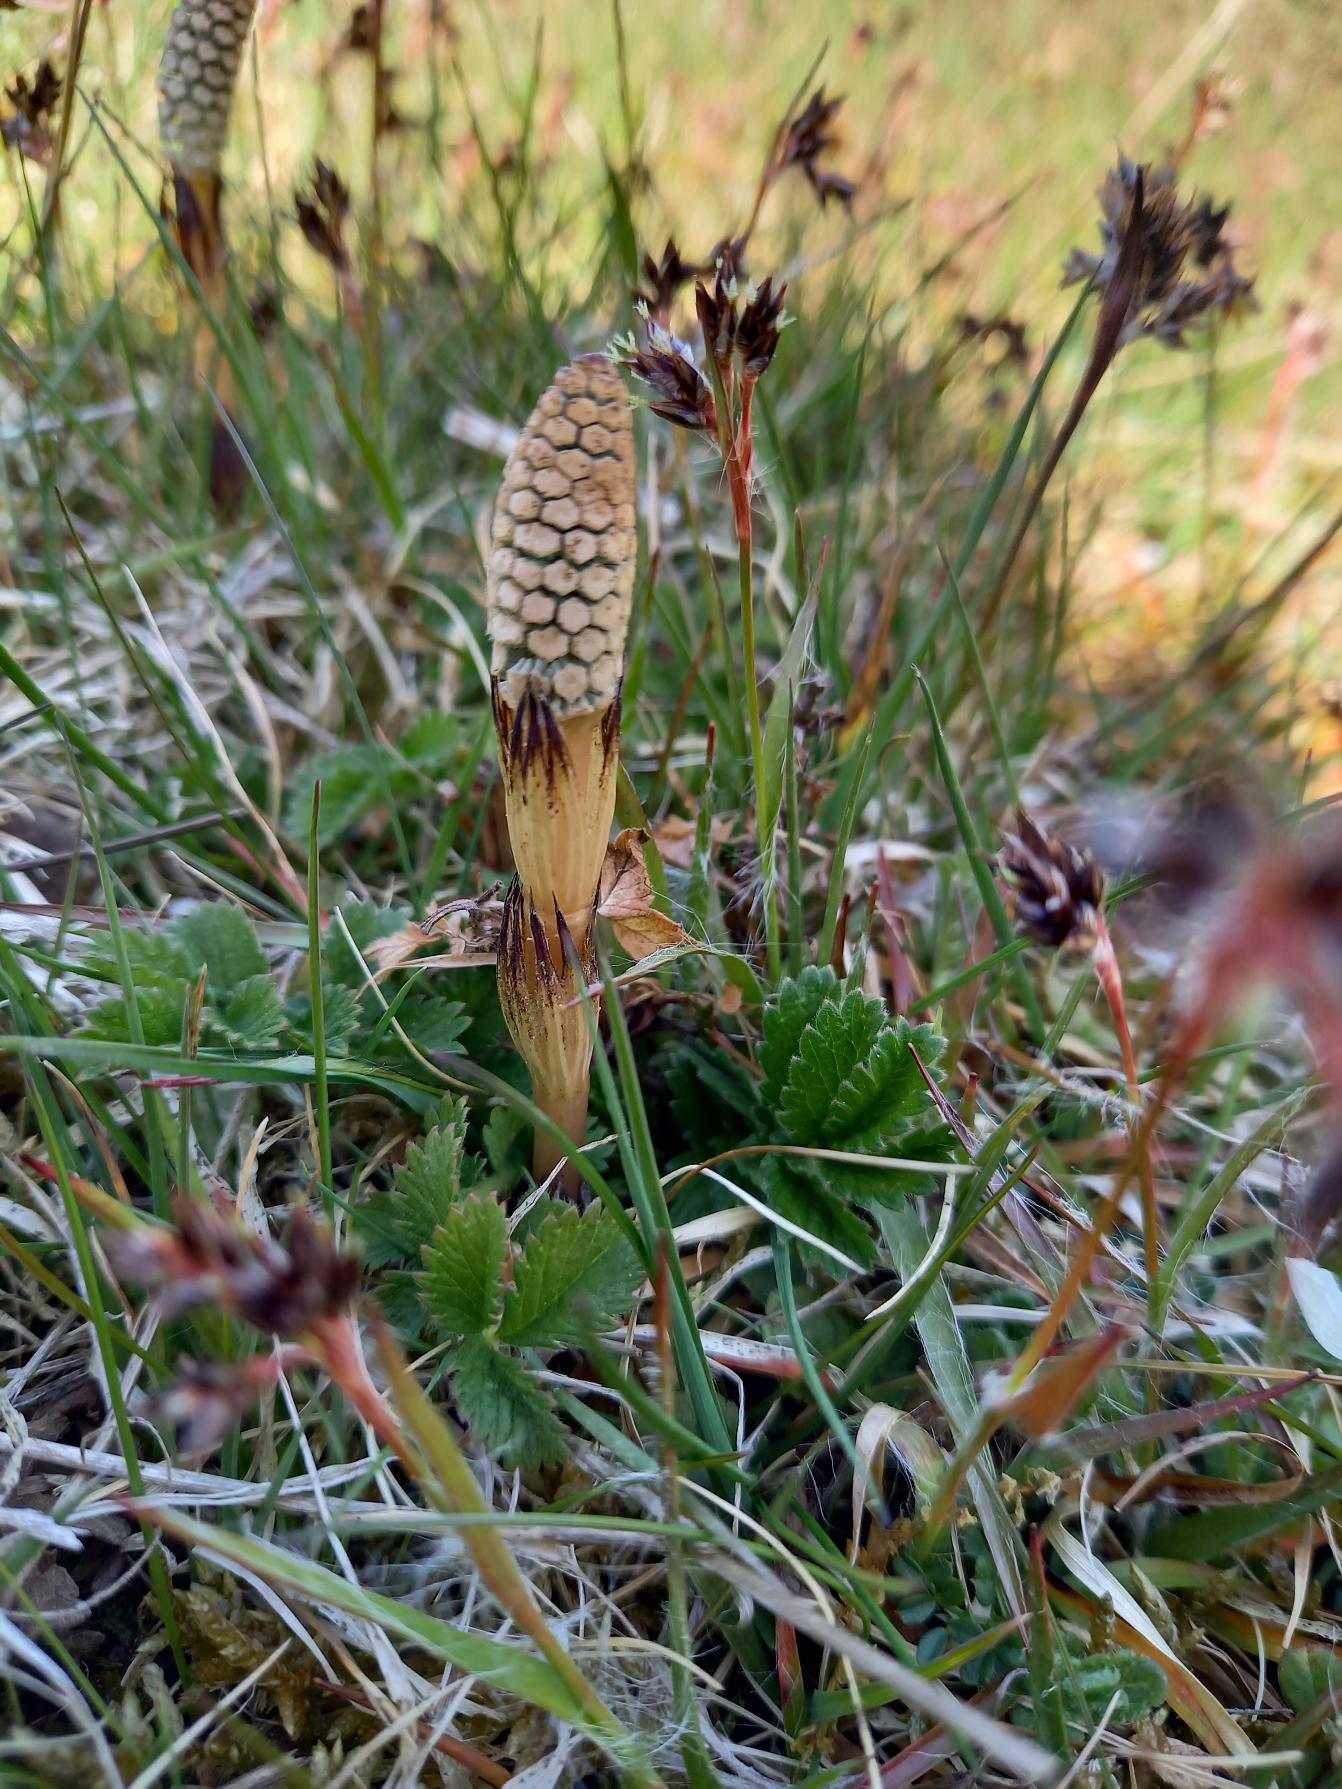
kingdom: Plantae
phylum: Tracheophyta
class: Polypodiopsida
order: Equisetales
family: Equisetaceae
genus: Equisetum
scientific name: Equisetum arvense
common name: Ager-padderok
